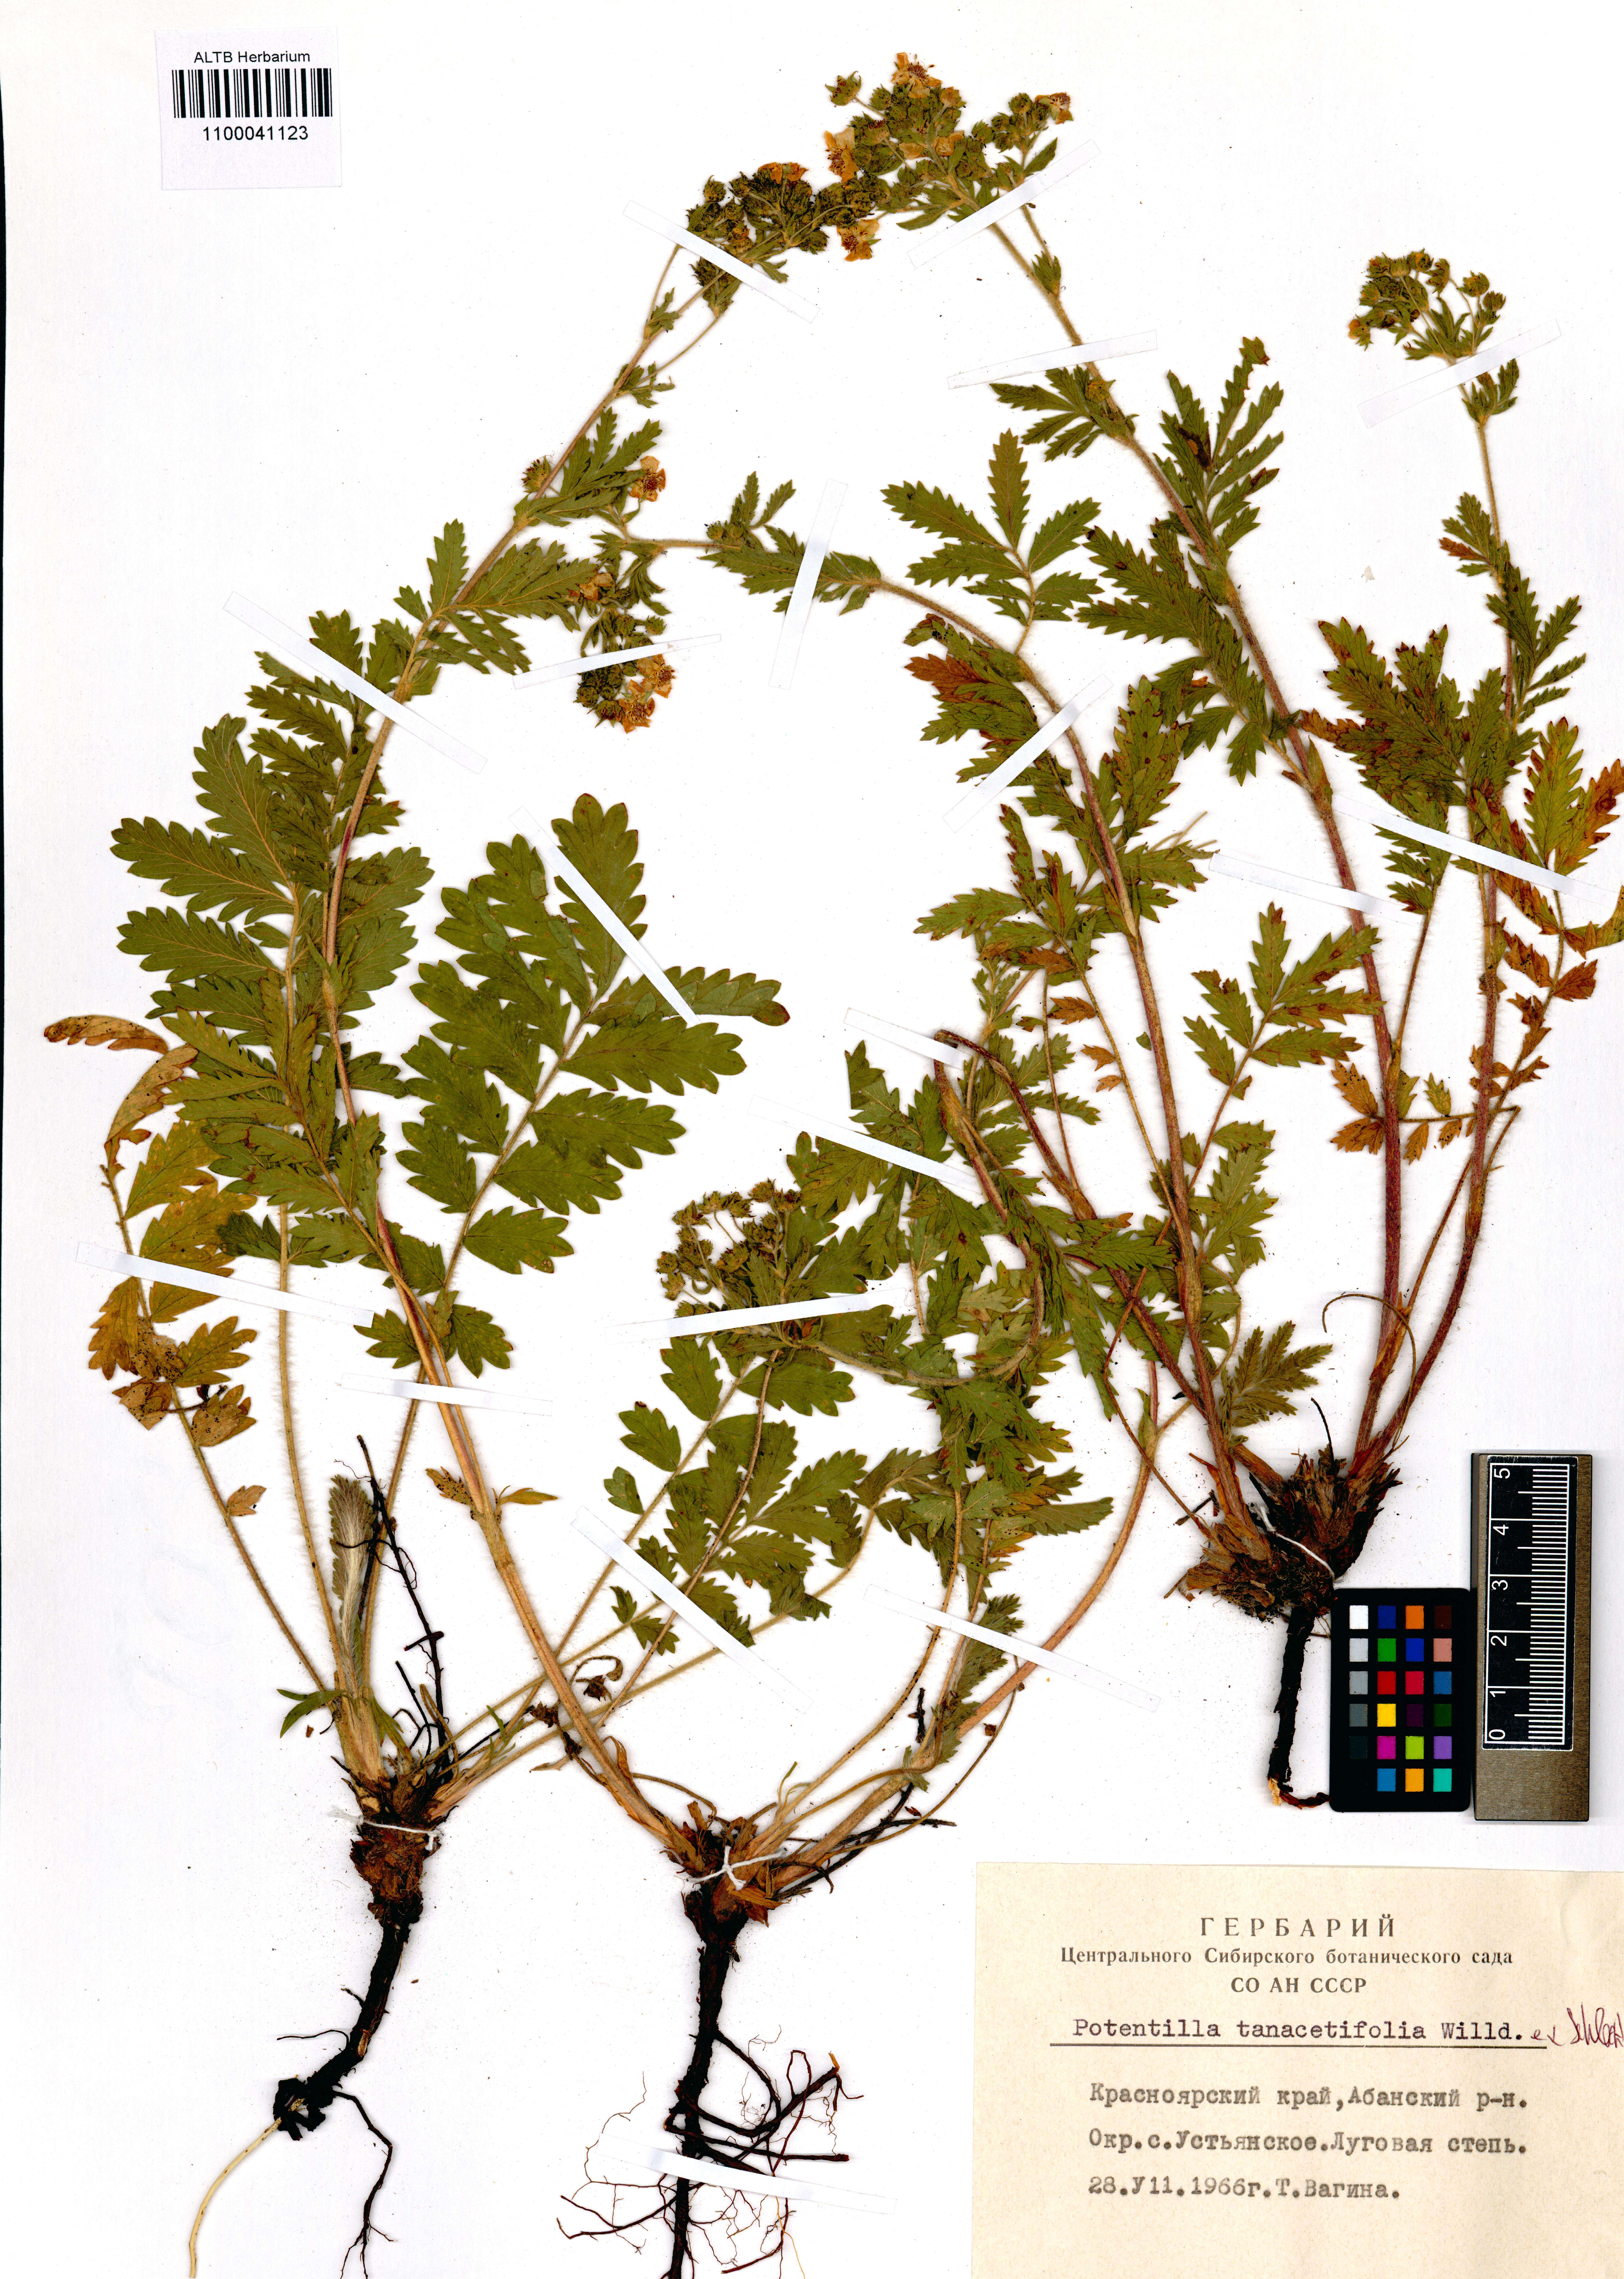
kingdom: Plantae
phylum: Tracheophyta
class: Magnoliopsida
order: Rosales
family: Rosaceae
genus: Potentilla
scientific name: Potentilla tanacetifolia
